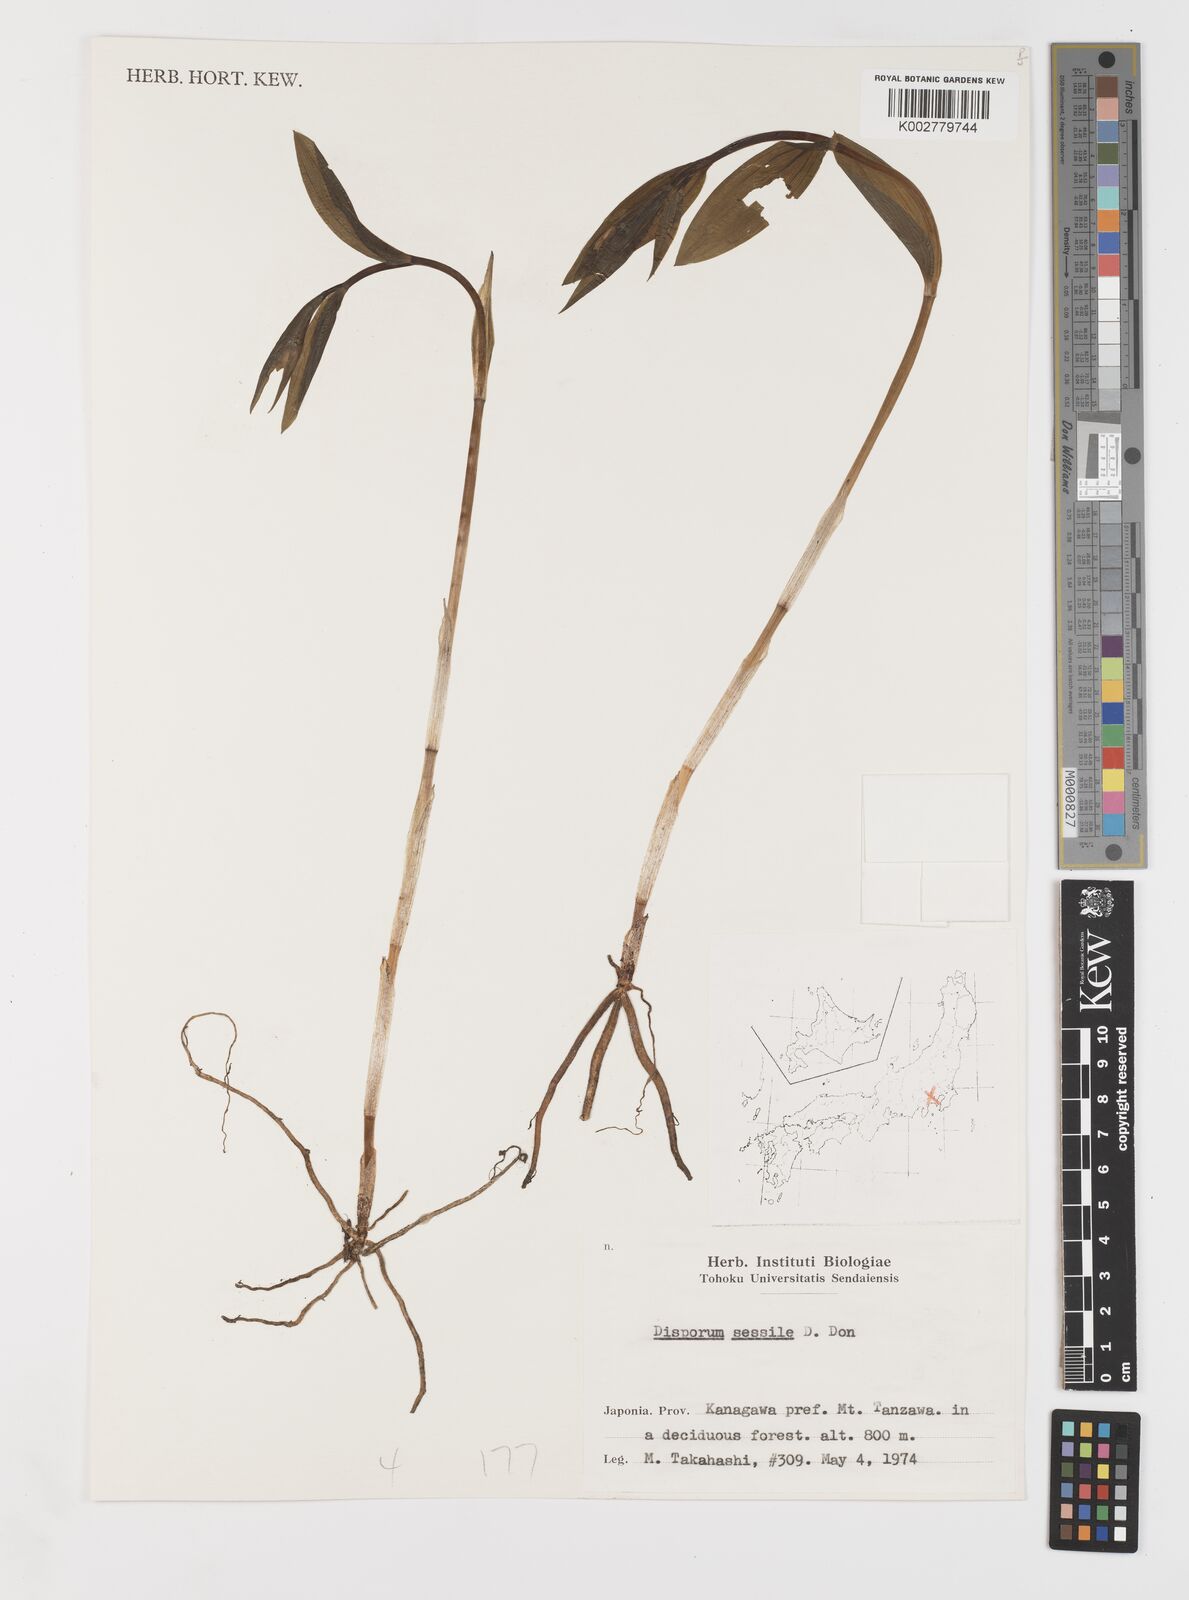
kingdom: Plantae
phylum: Tracheophyta
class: Liliopsida
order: Liliales
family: Colchicaceae
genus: Disporum
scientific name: Disporum sessile
